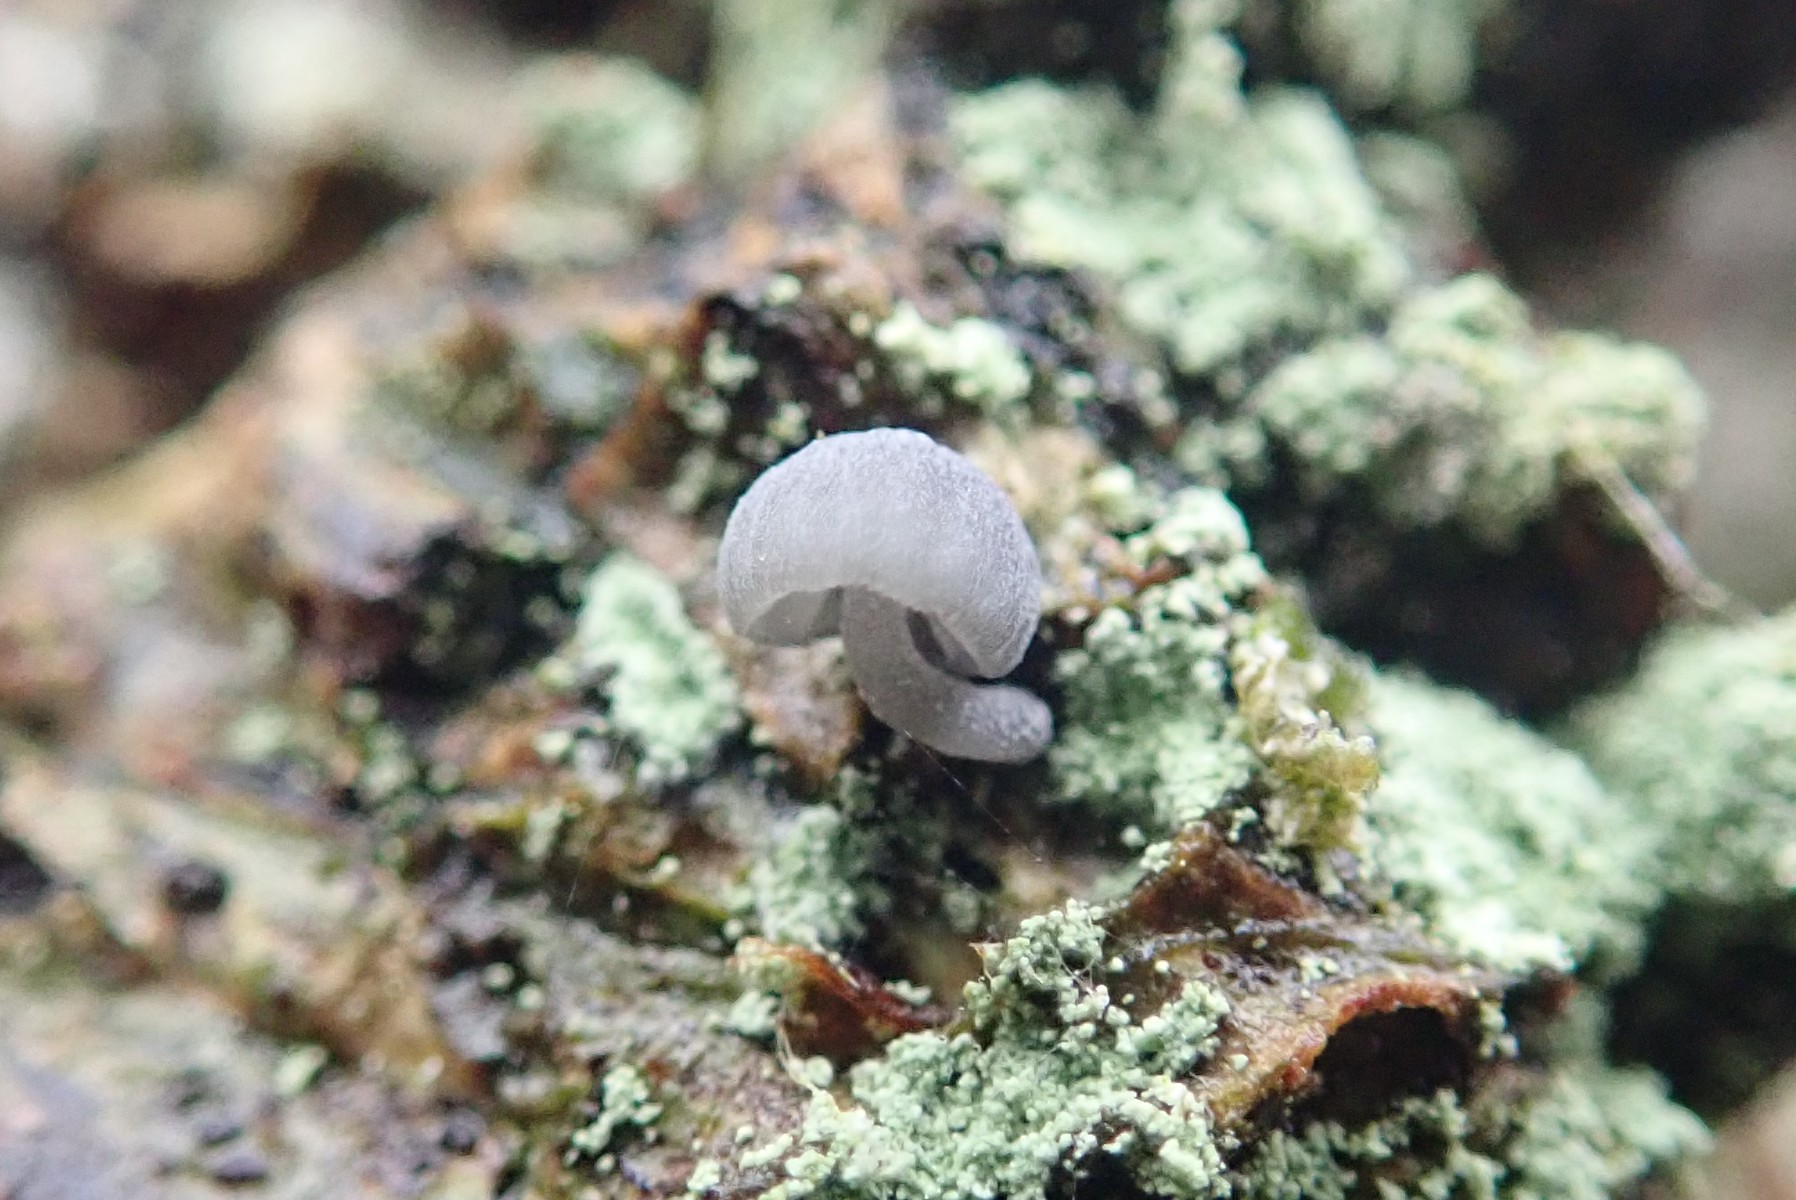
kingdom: Fungi
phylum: Basidiomycota
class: Agaricomycetes
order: Agaricales
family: Mycenaceae
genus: Mycena
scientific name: Mycena pseudocorticola
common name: gråblå bark-huesvamp
